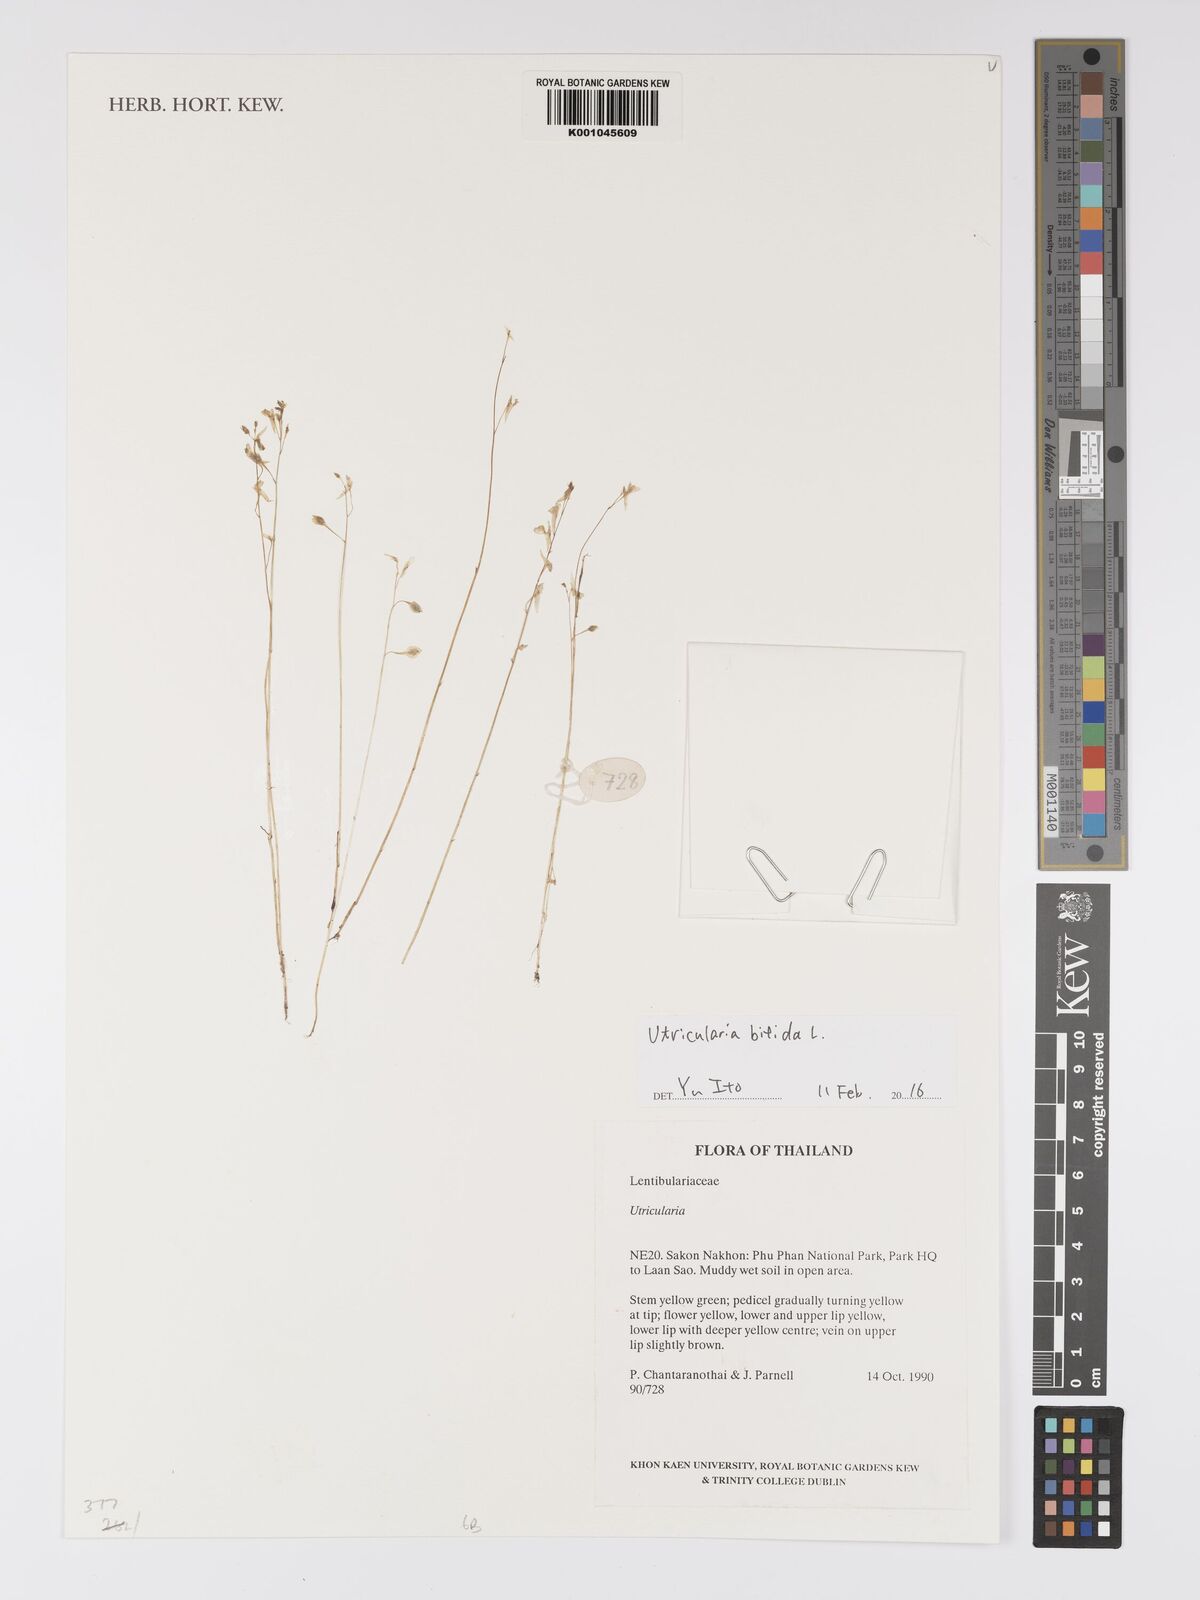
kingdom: Plantae
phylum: Tracheophyta
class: Magnoliopsida
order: Lamiales
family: Lentibulariaceae
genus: Utricularia
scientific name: Utricularia bifida
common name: Bifid bladderwort
